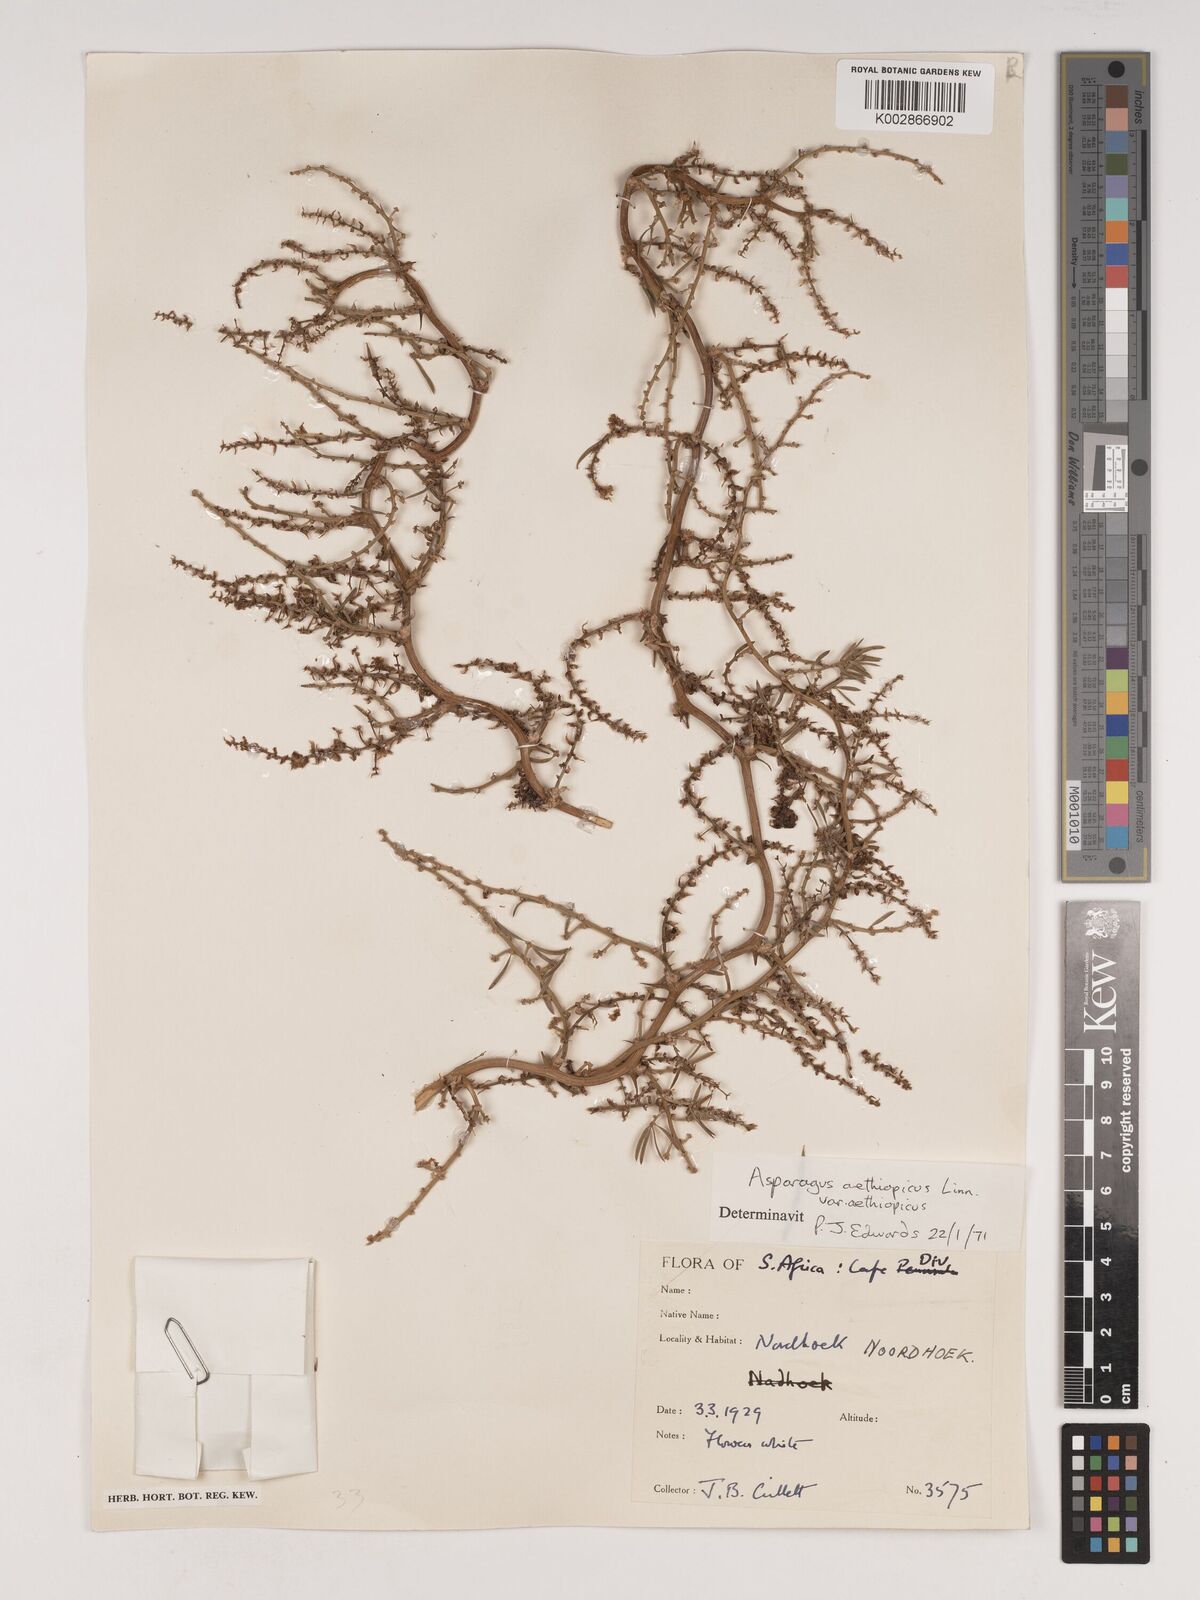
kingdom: Plantae
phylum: Tracheophyta
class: Liliopsida
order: Asparagales
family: Asparagaceae
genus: Asparagus
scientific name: Asparagus aethiopicus
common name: Sprenger's asparagus fern
